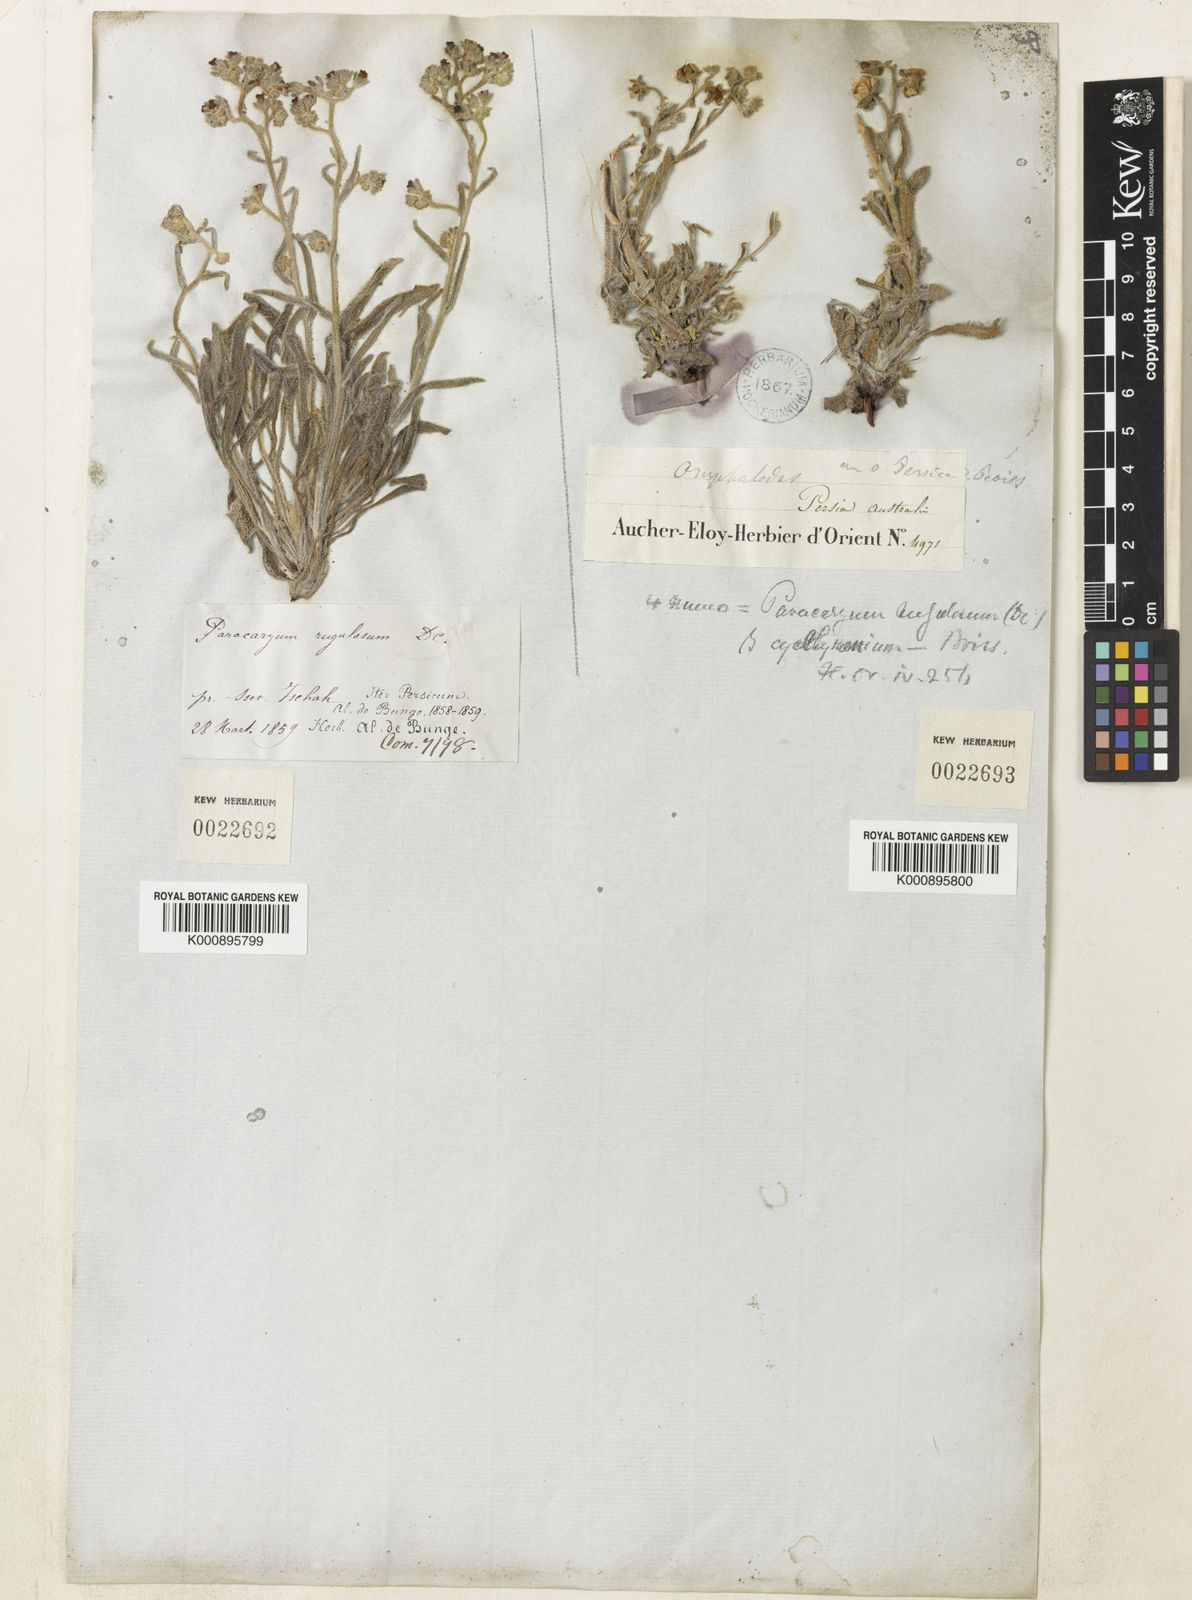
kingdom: Plantae
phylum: Tracheophyta
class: Magnoliopsida
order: Boraginales
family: Boraginaceae
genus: Paracaryum
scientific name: Paracaryum rugulosum
